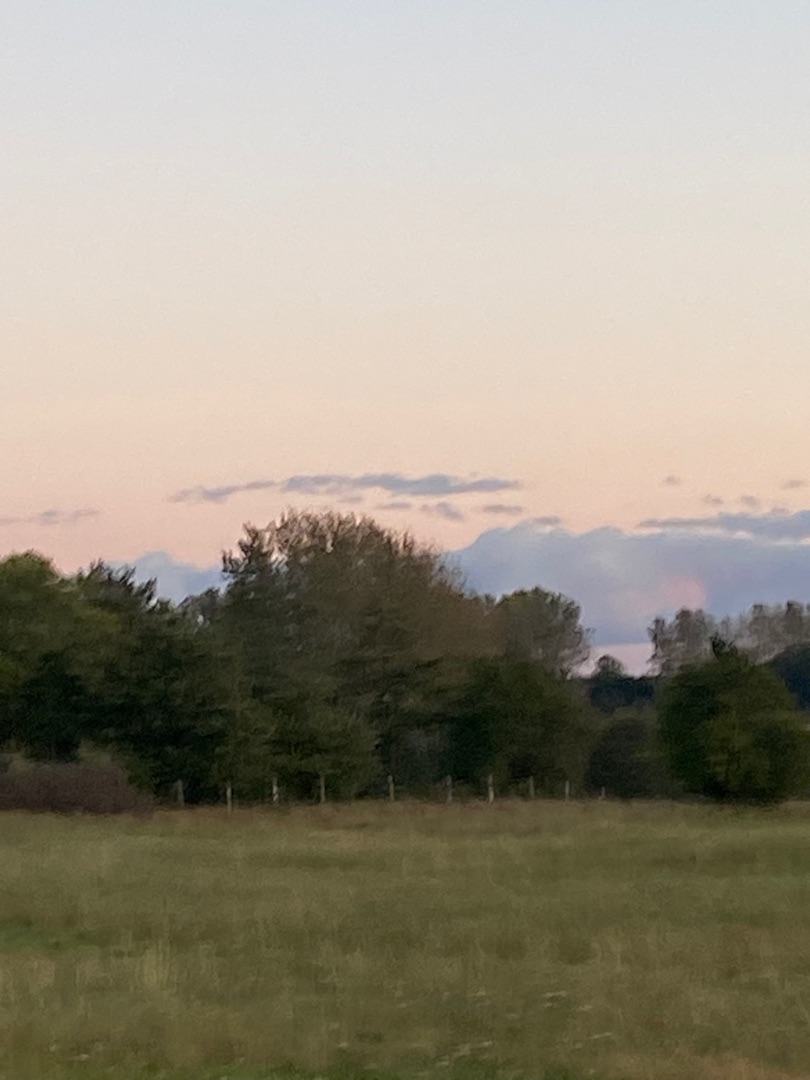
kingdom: Animalia
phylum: Chordata
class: Aves
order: Pelecaniformes
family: Ardeidae
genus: Ardea
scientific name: Ardea cinerea
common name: Fiskehejre
